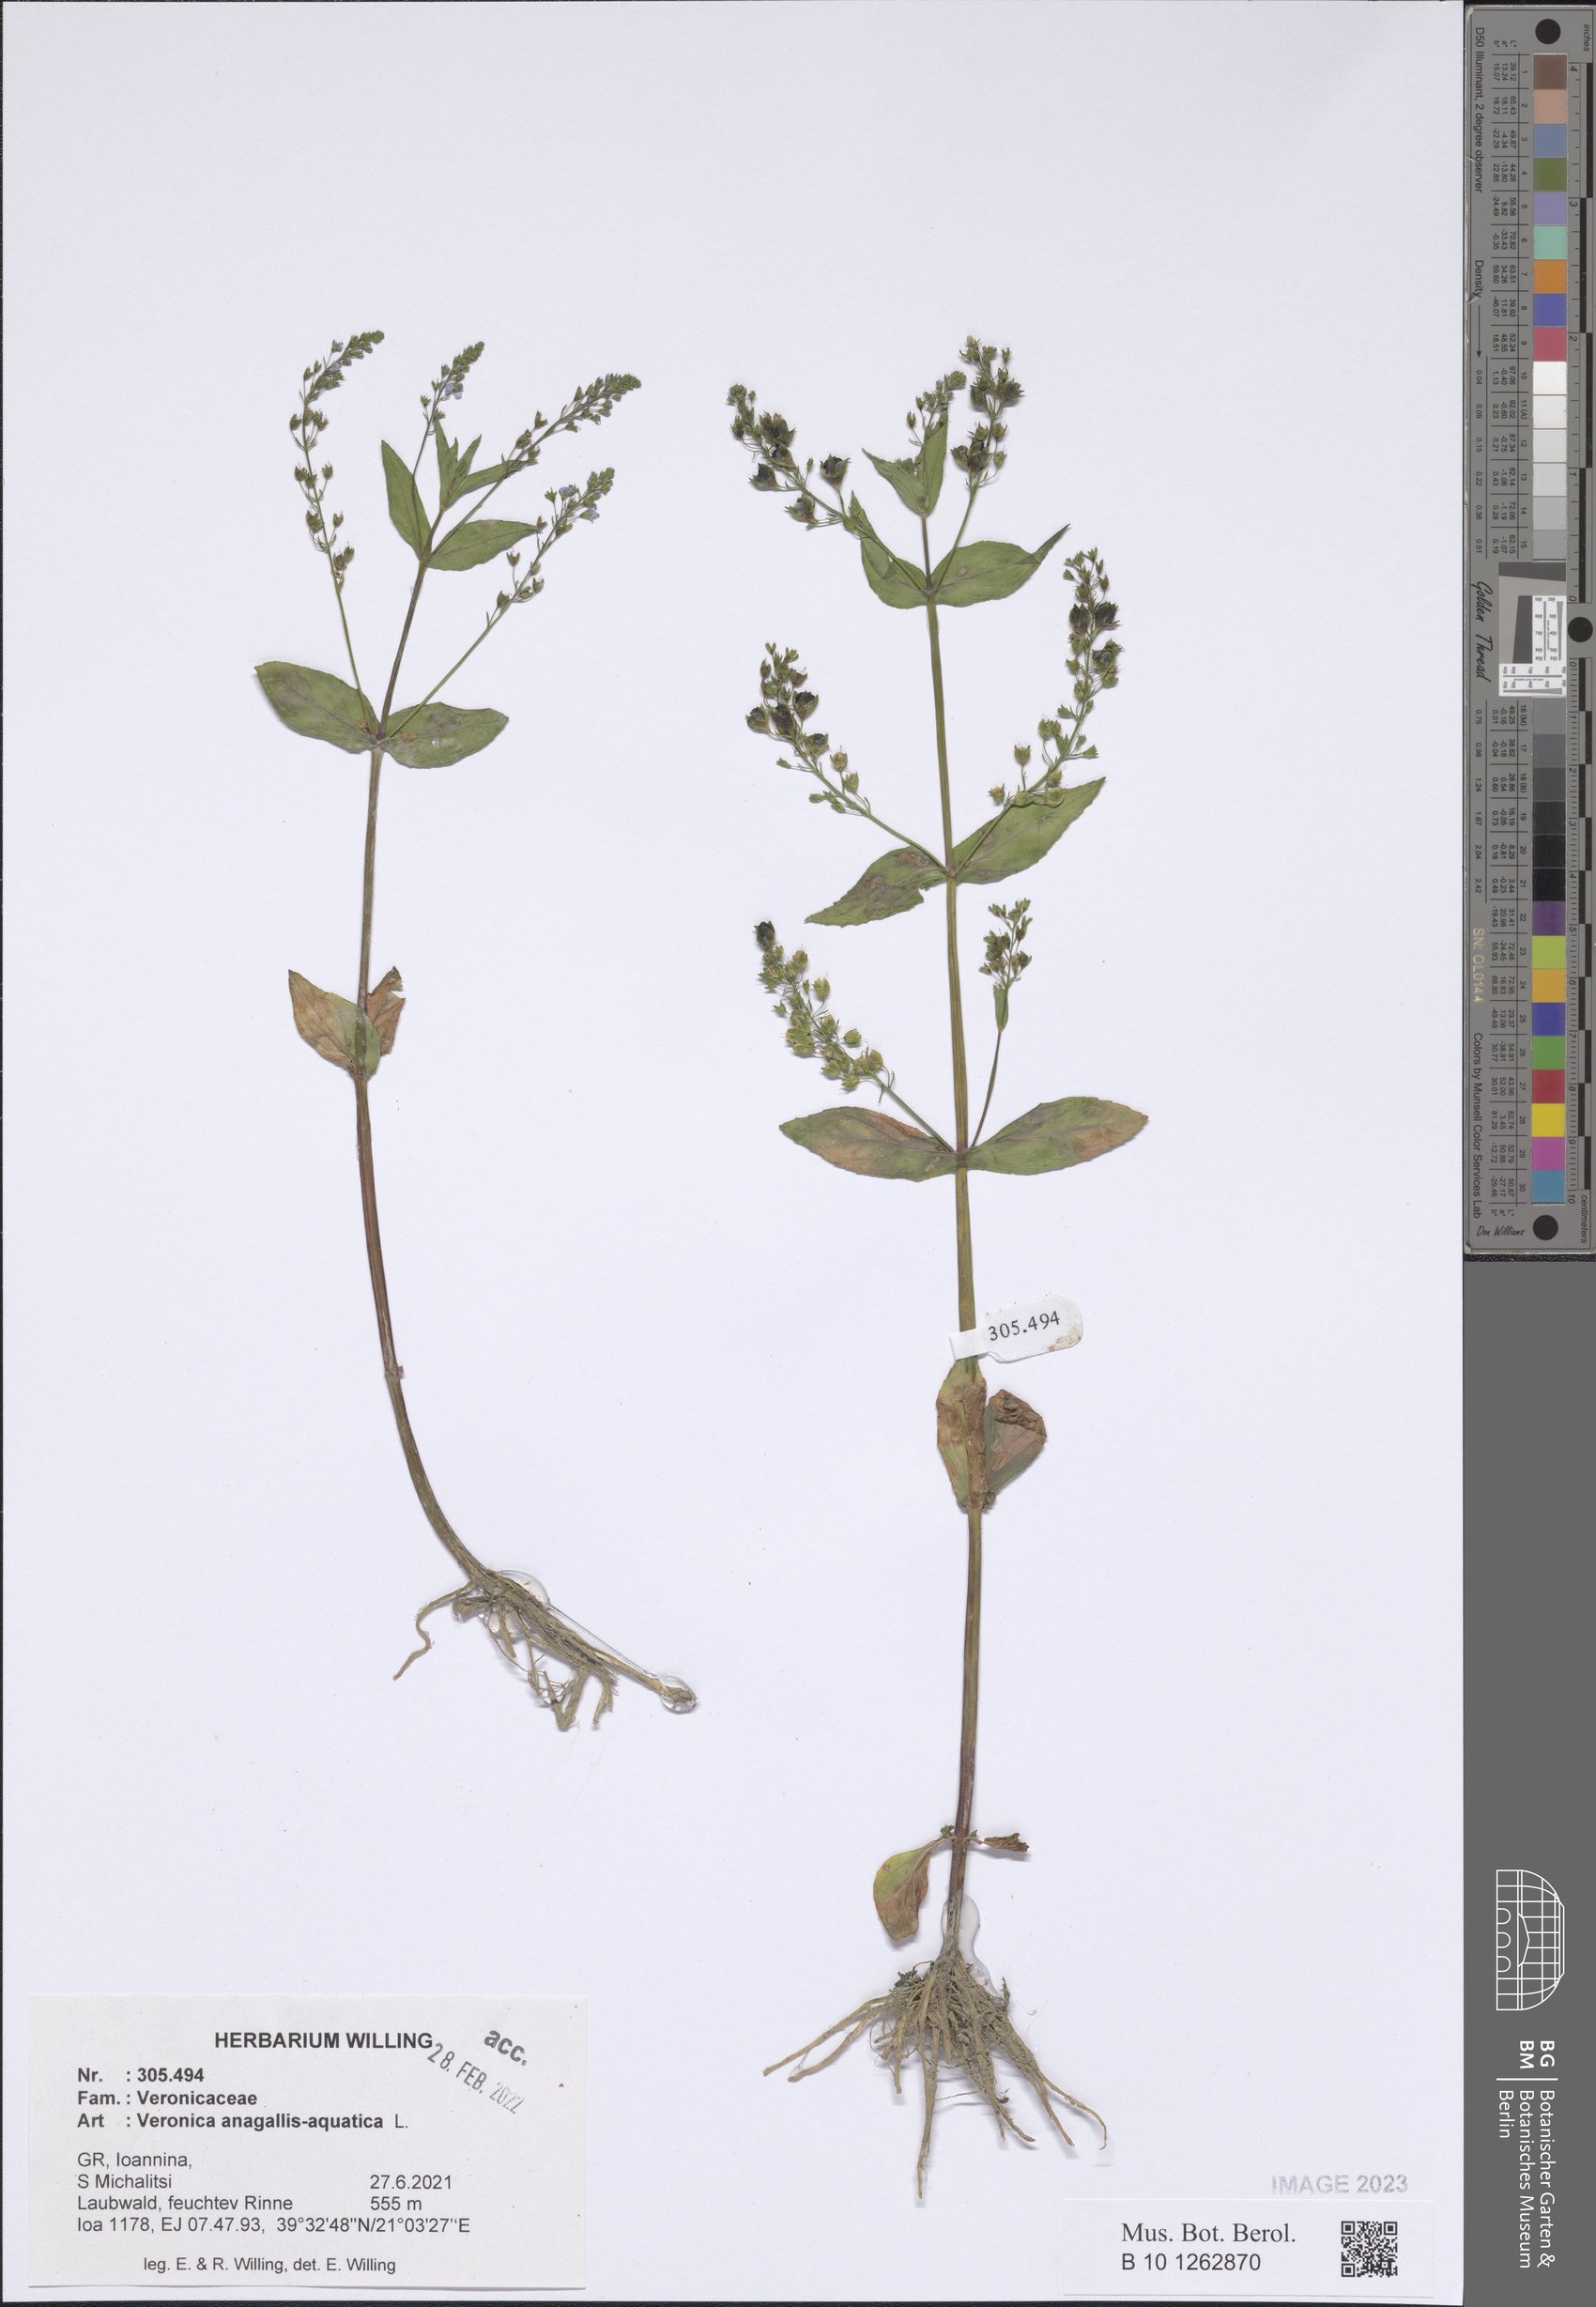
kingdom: Plantae
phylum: Tracheophyta
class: Magnoliopsida
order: Lamiales
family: Plantaginaceae
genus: Veronica
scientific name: Veronica anagallis-aquatica
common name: Water speedwell
